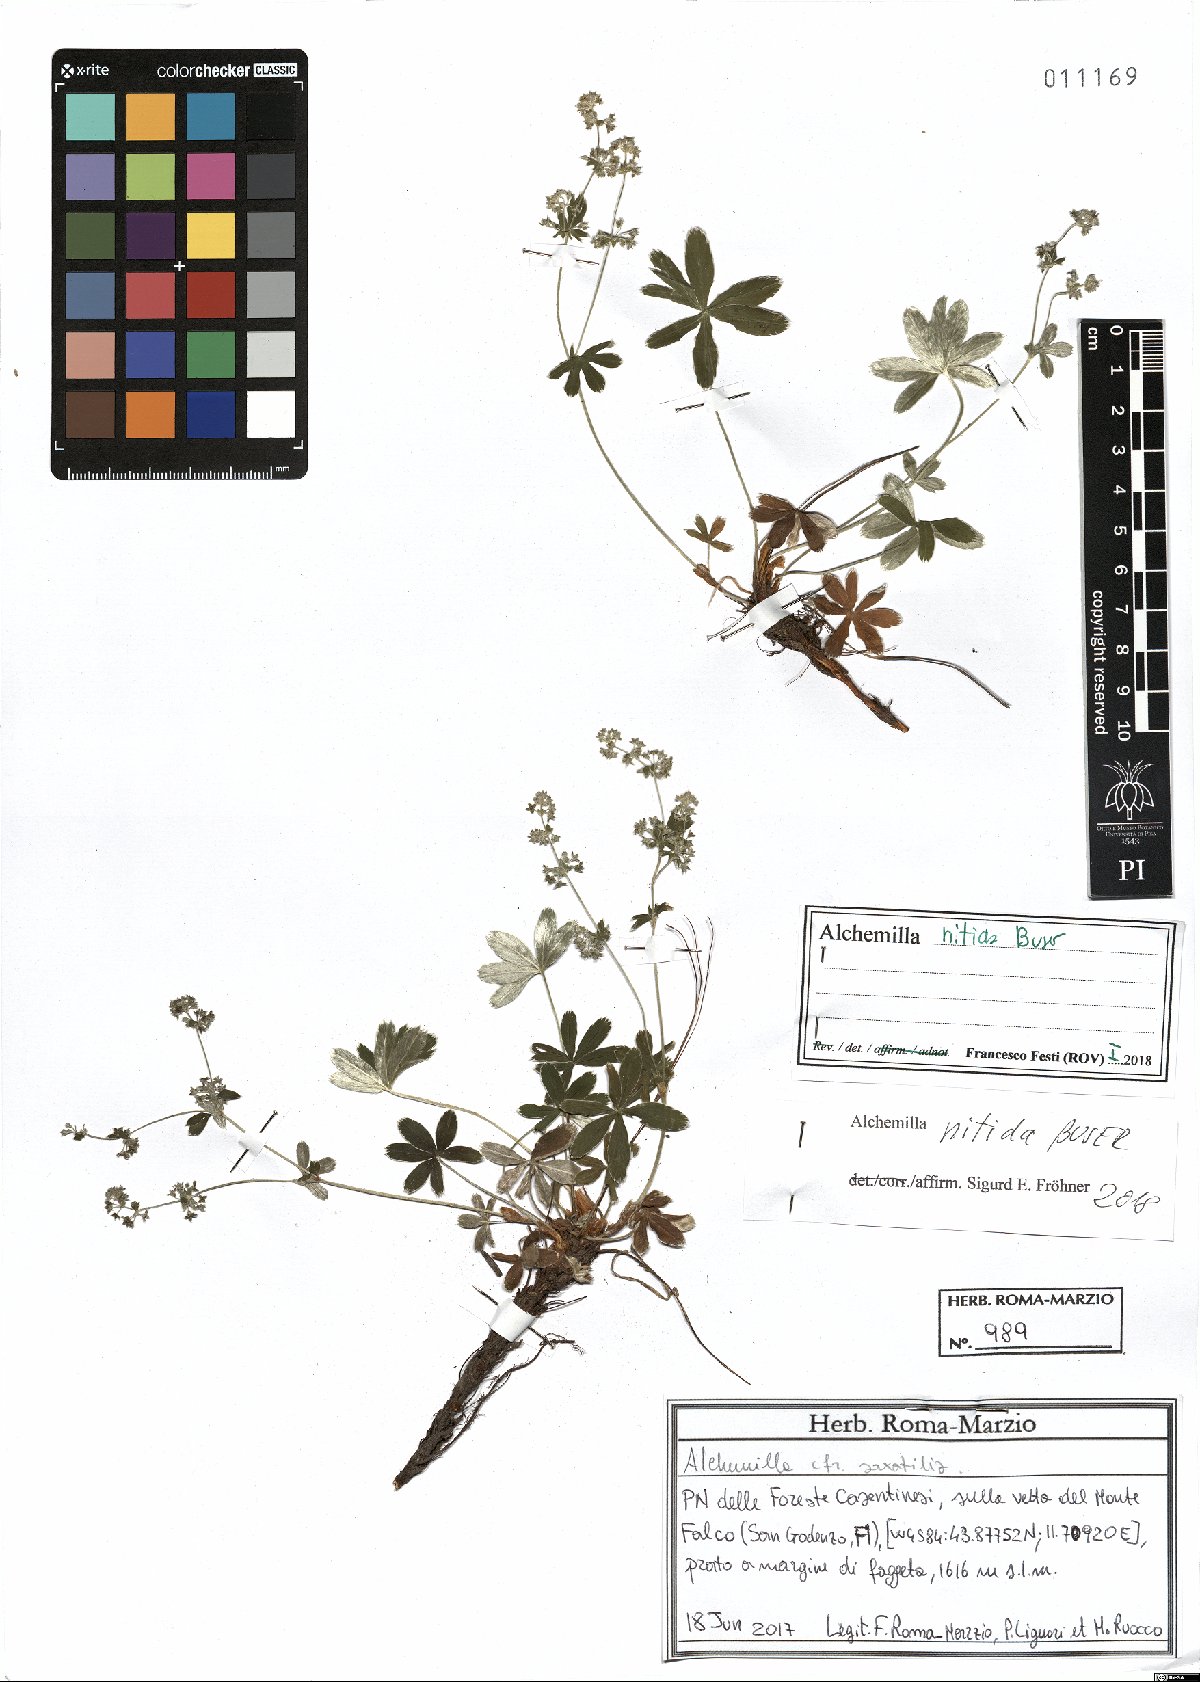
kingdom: Plantae
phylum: Tracheophyta
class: Magnoliopsida
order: Rosales
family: Rosaceae
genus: Alchemilla
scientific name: Alchemilla nitida
